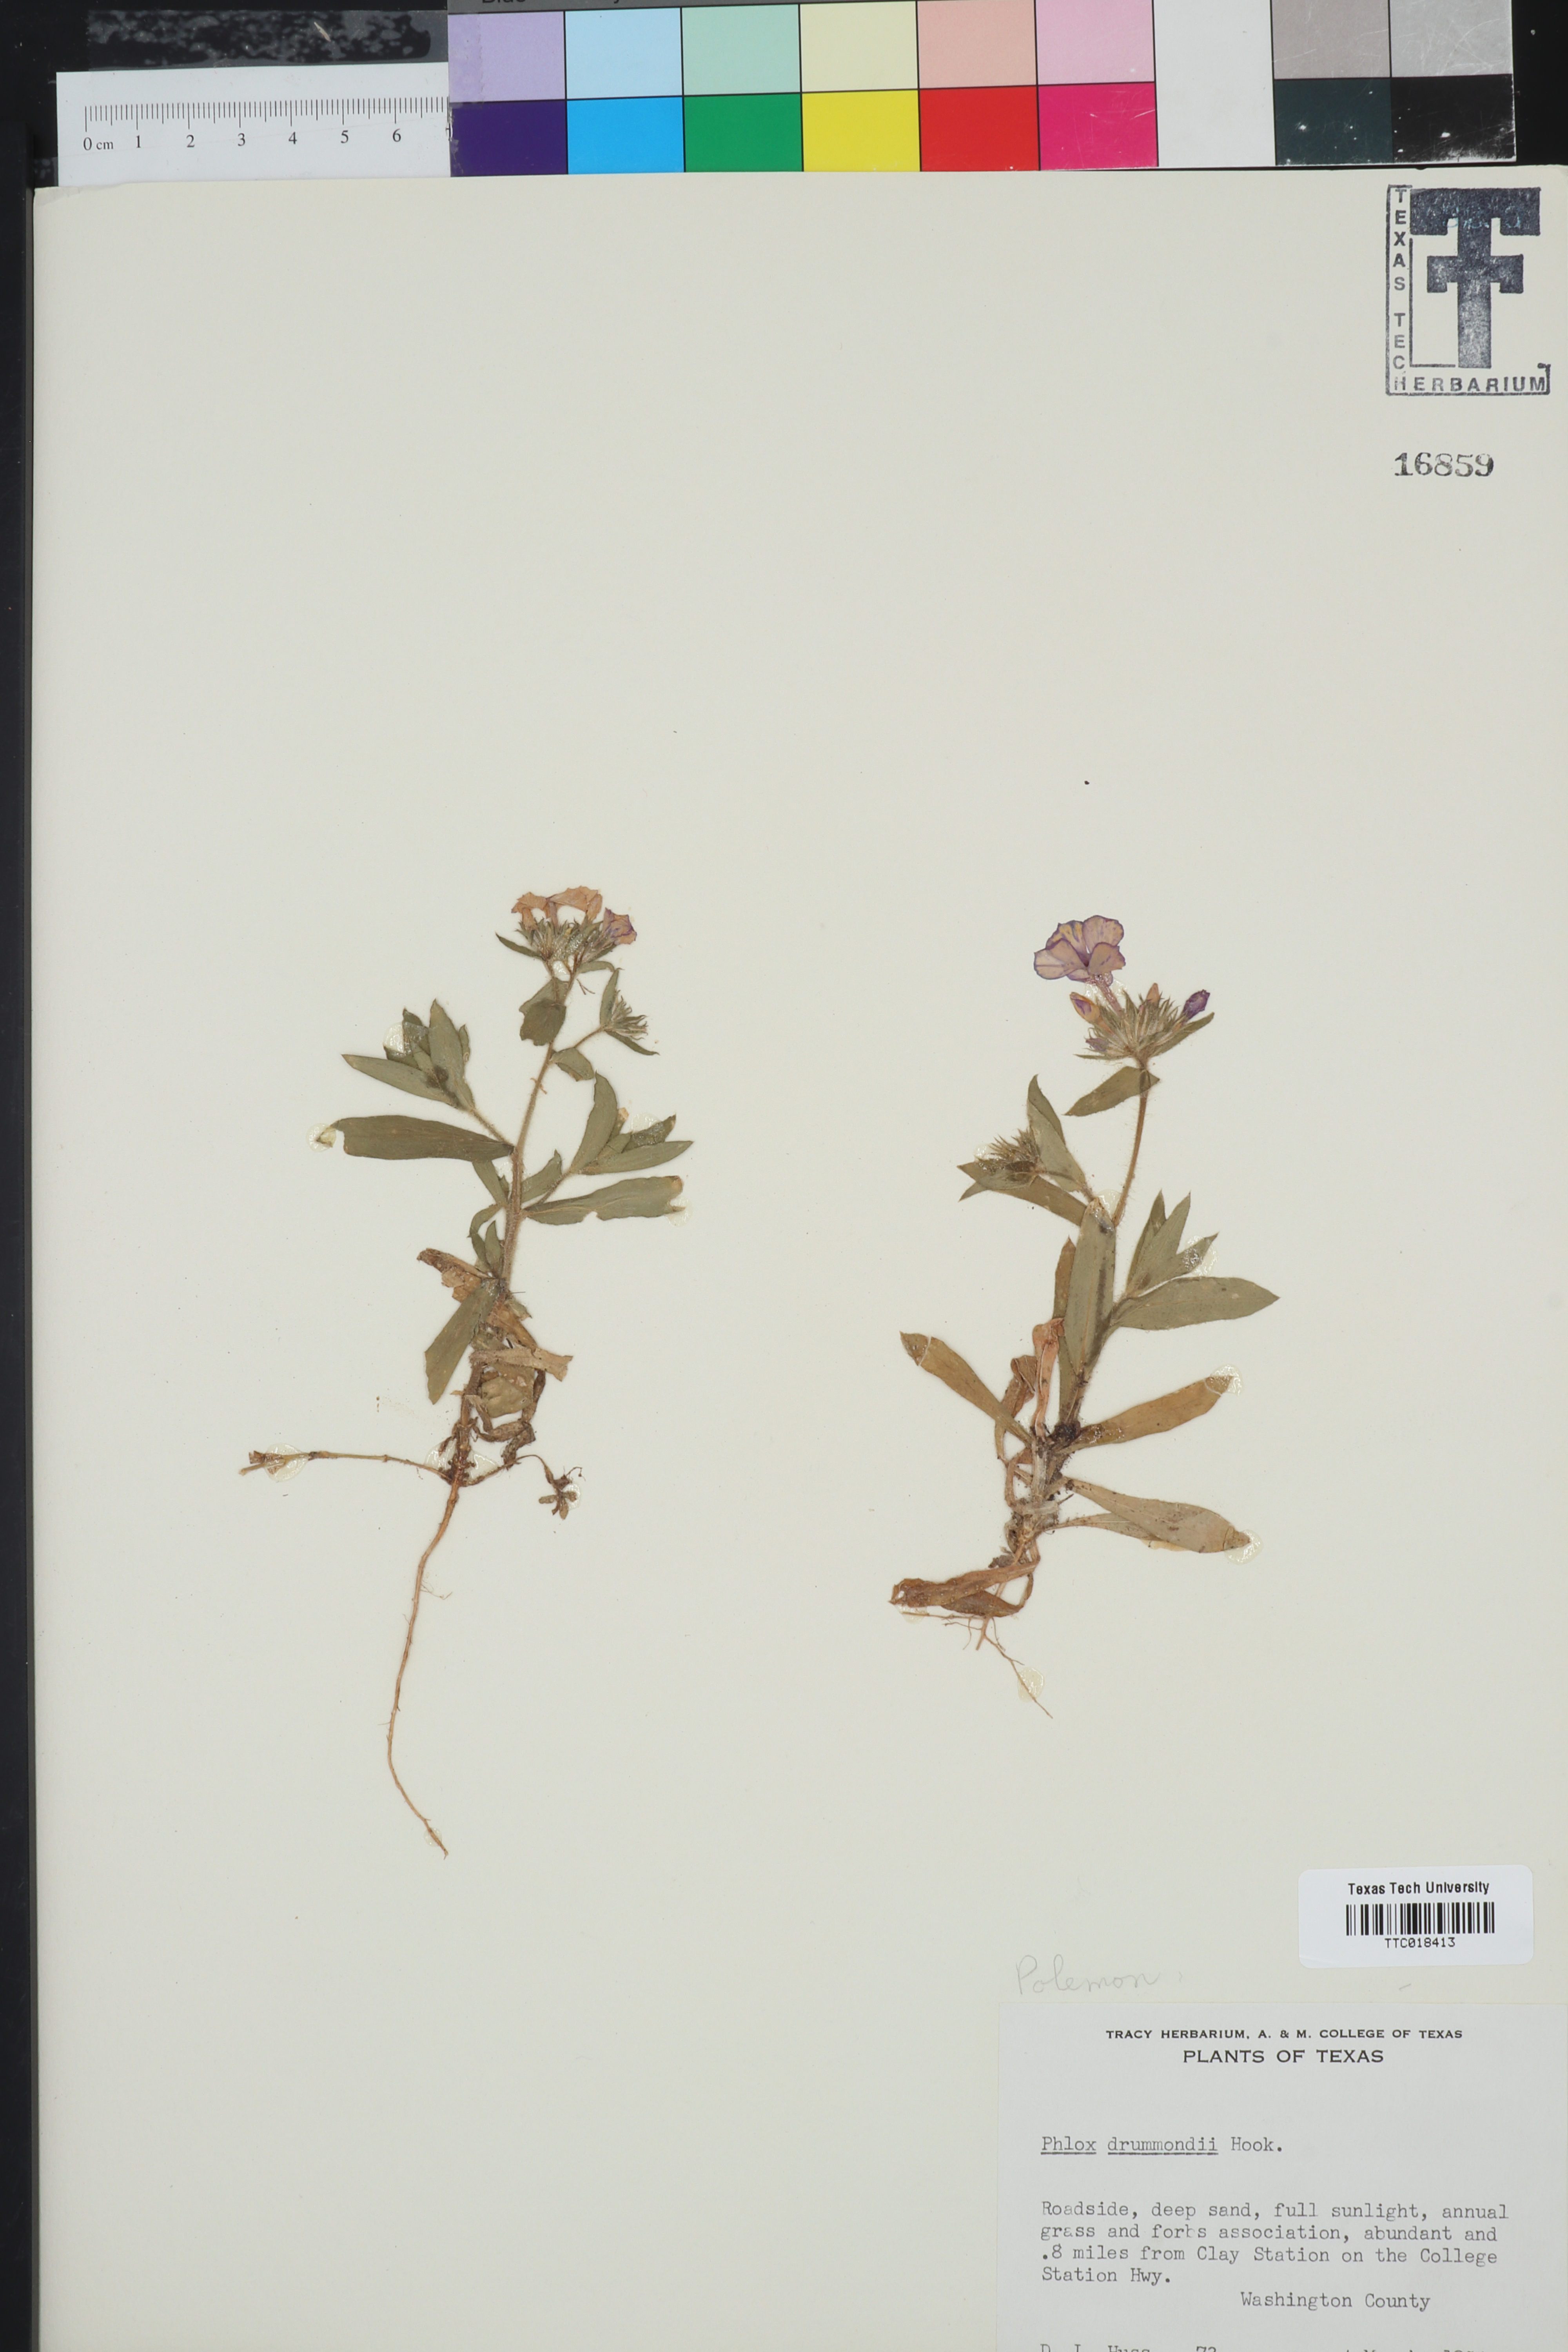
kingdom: Plantae
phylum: Tracheophyta
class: Magnoliopsida
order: Ericales
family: Polemoniaceae
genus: Phlox
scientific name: Phlox drummondii
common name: Drummond's phlox
